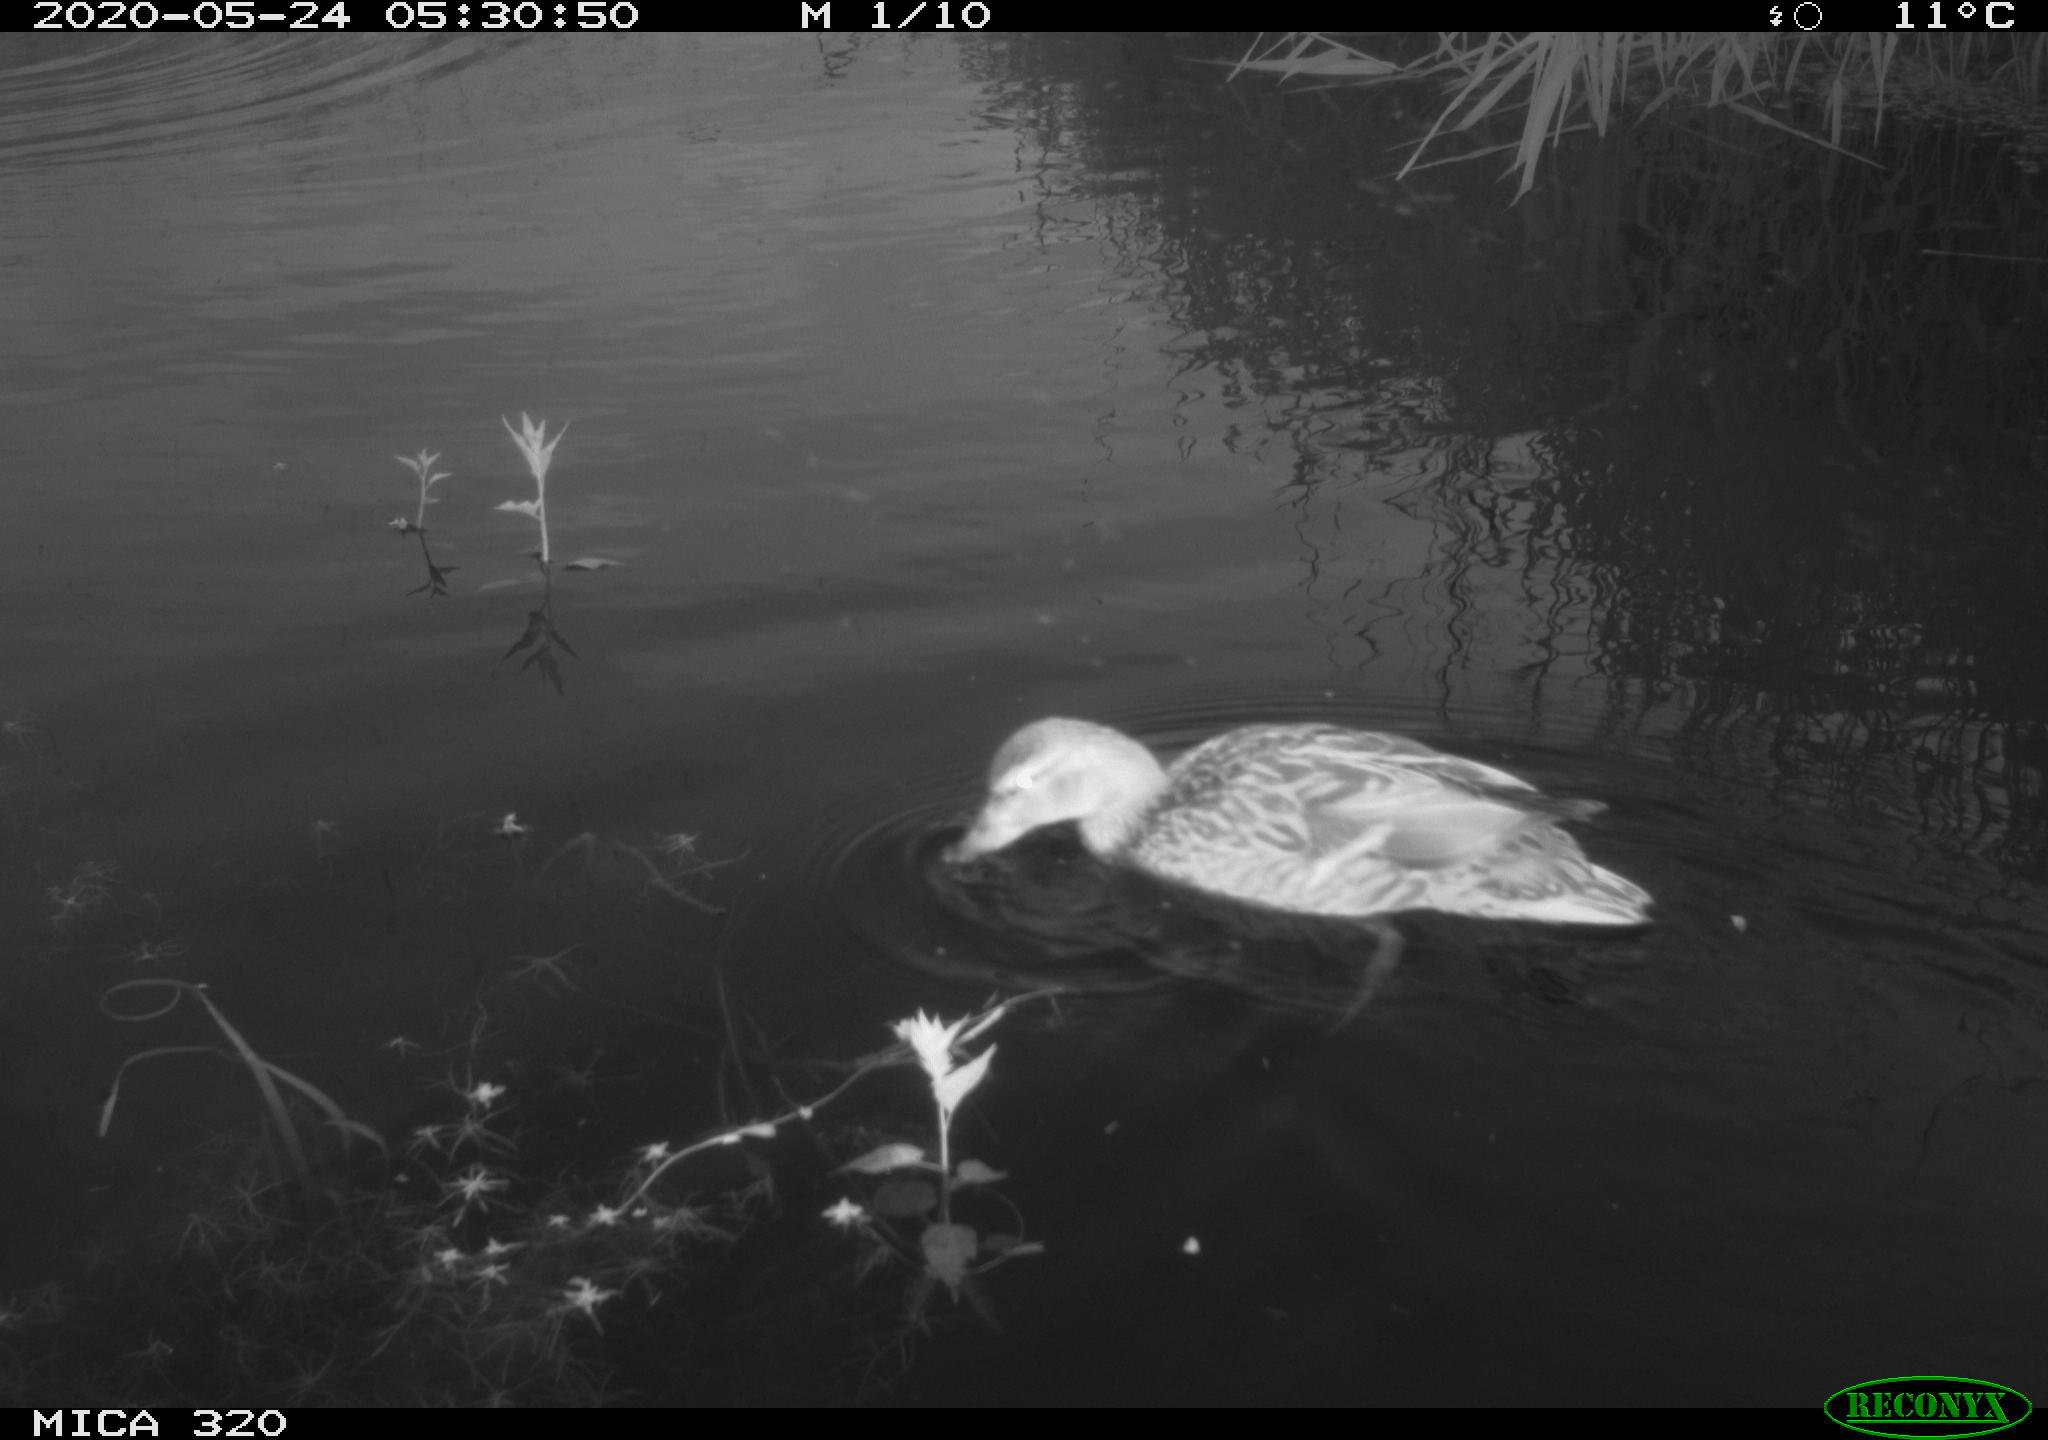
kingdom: Animalia
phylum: Chordata
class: Aves
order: Anseriformes
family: Anatidae
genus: Anas
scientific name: Anas platyrhynchos
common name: Mallard
